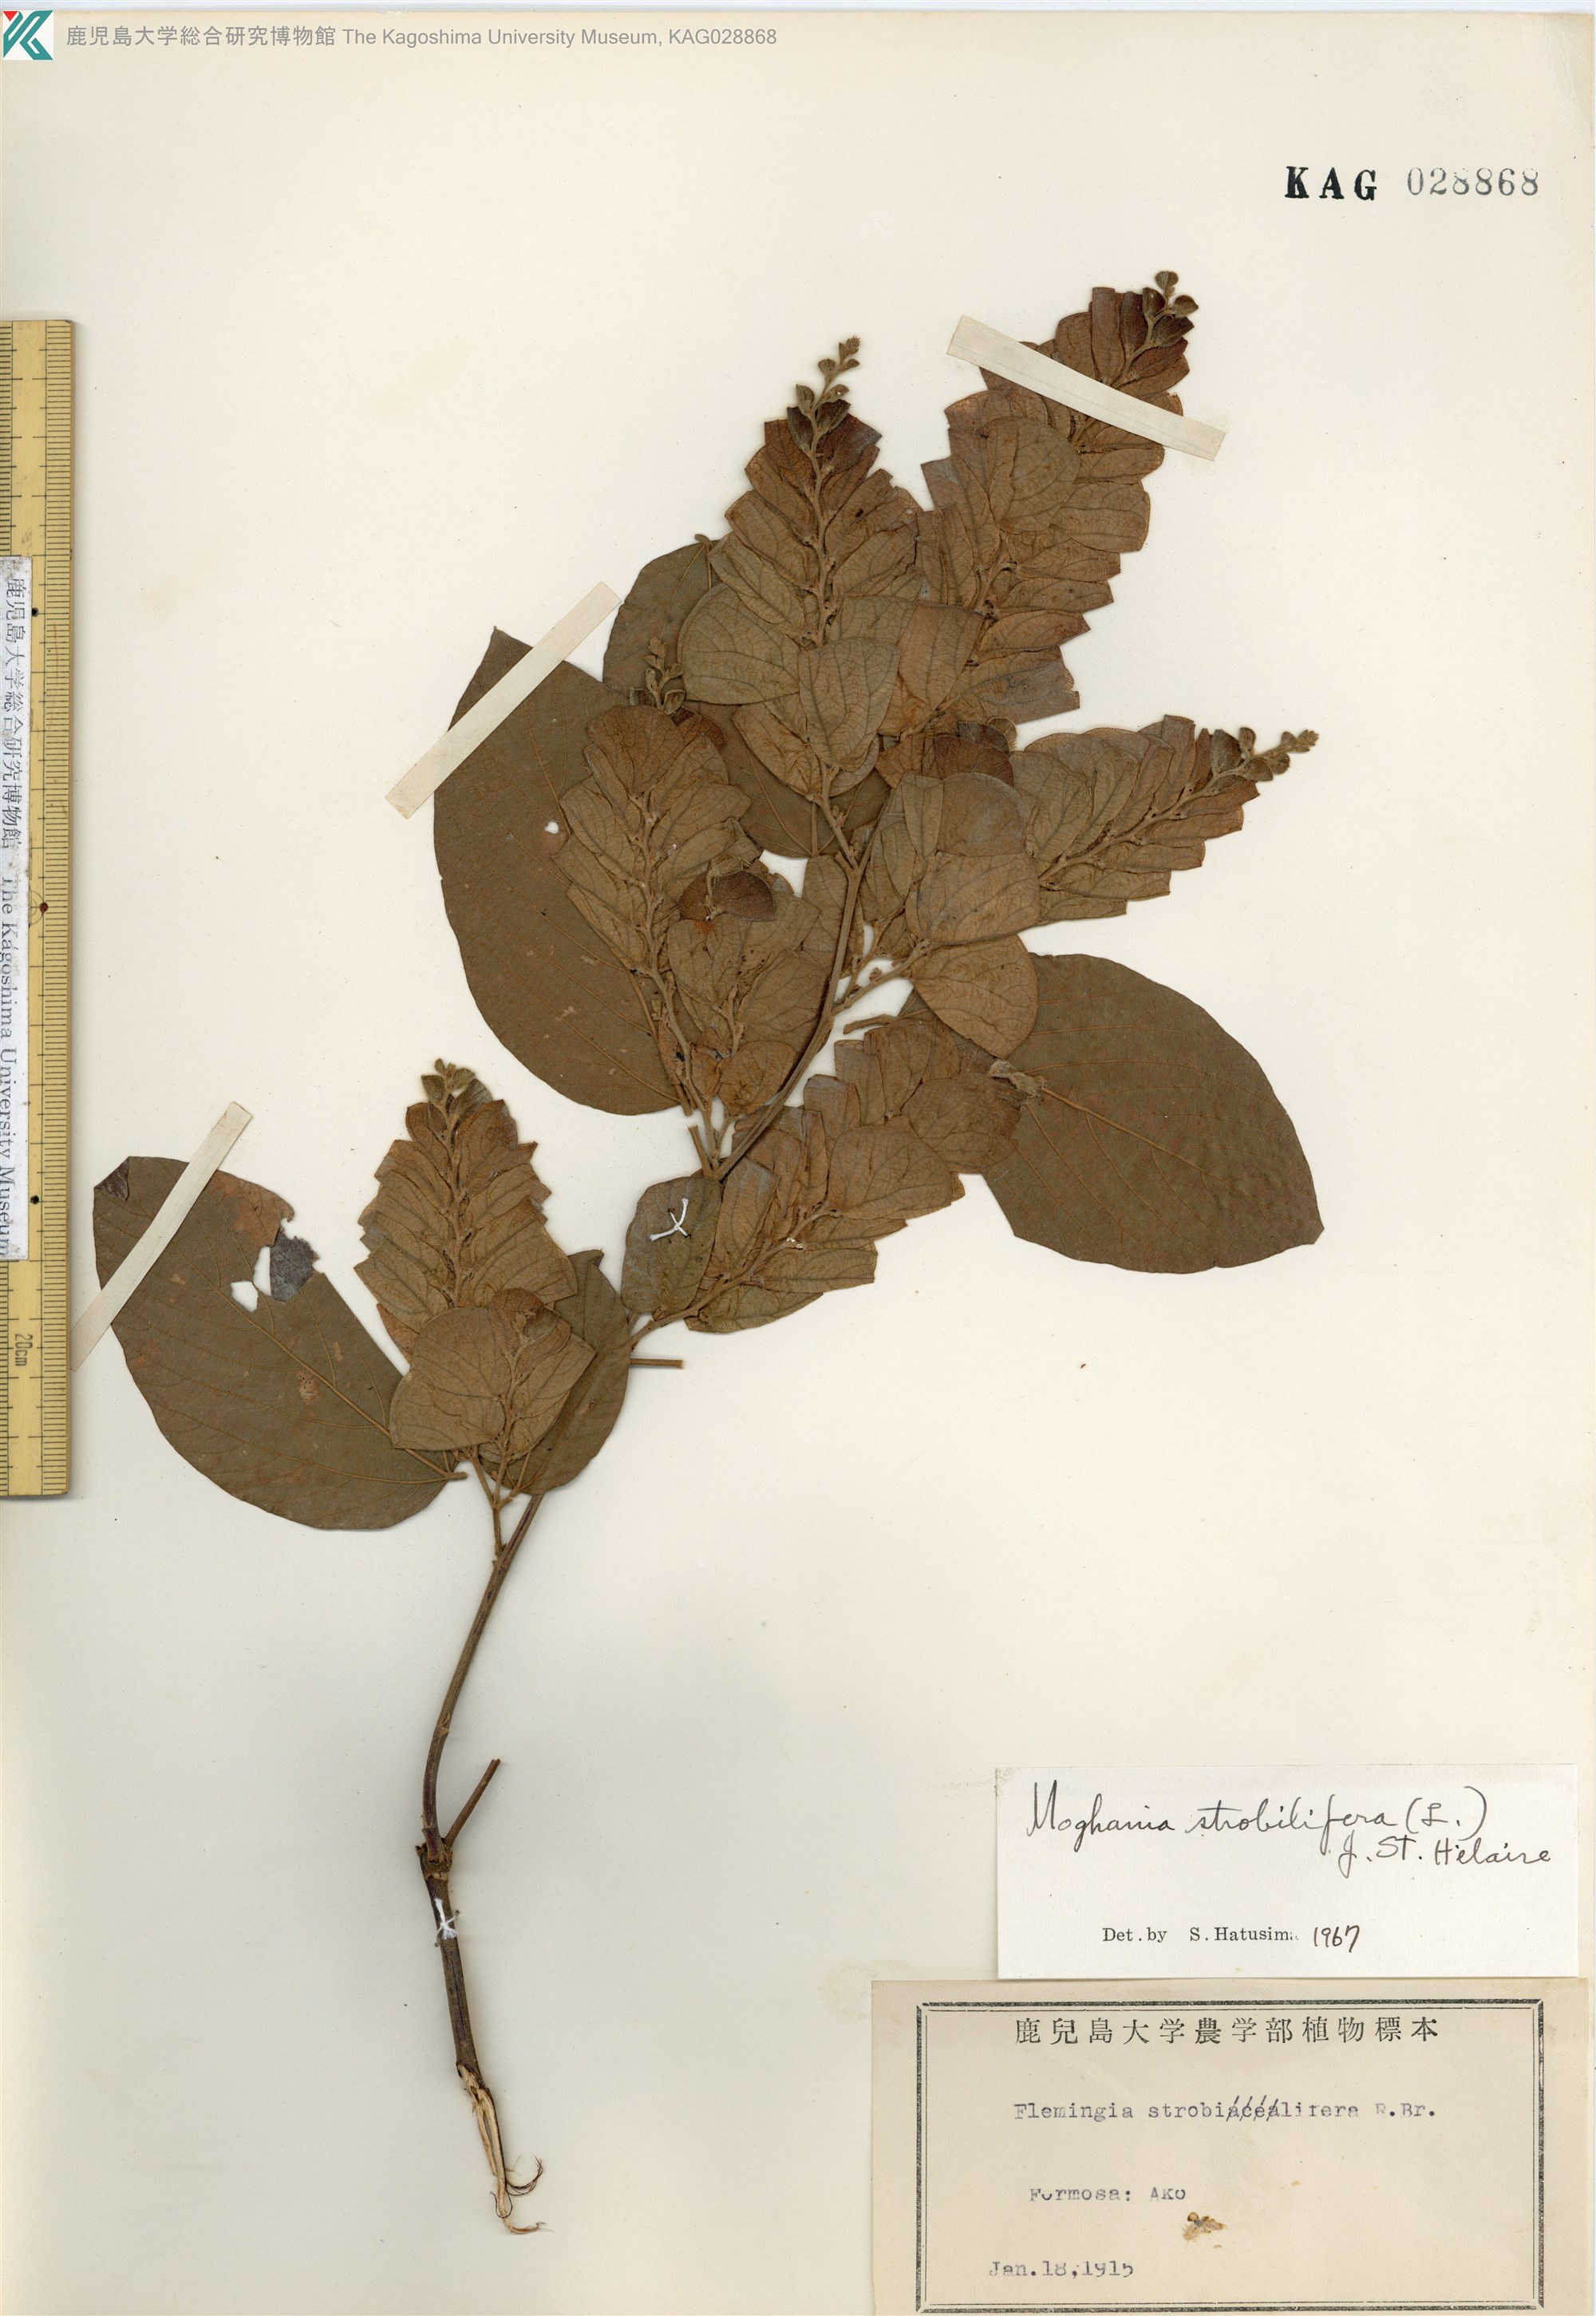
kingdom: Plantae
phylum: Tracheophyta
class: Magnoliopsida
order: Fabales
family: Fabaceae
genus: Flemingia
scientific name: Flemingia strobilifera
